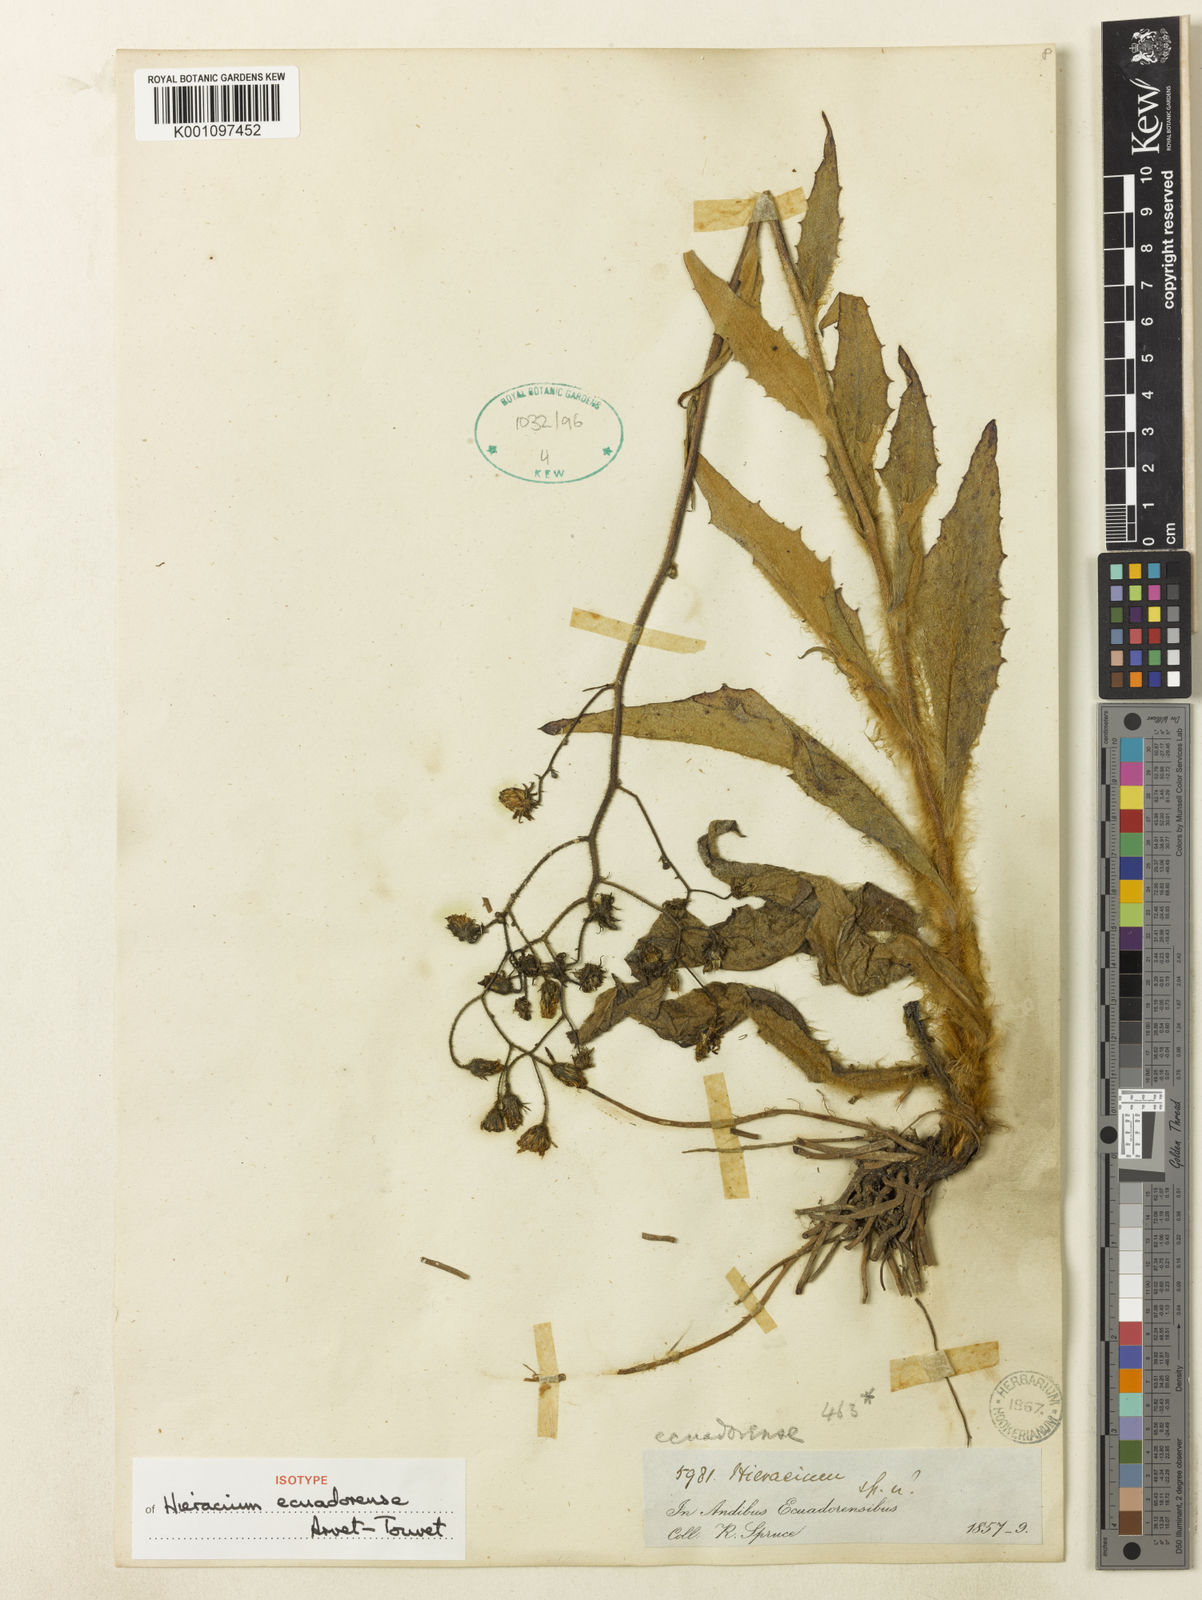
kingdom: Plantae
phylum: Tracheophyta
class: Magnoliopsida
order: Asterales
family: Asteraceae
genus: Hieracium
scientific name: Hieracium
